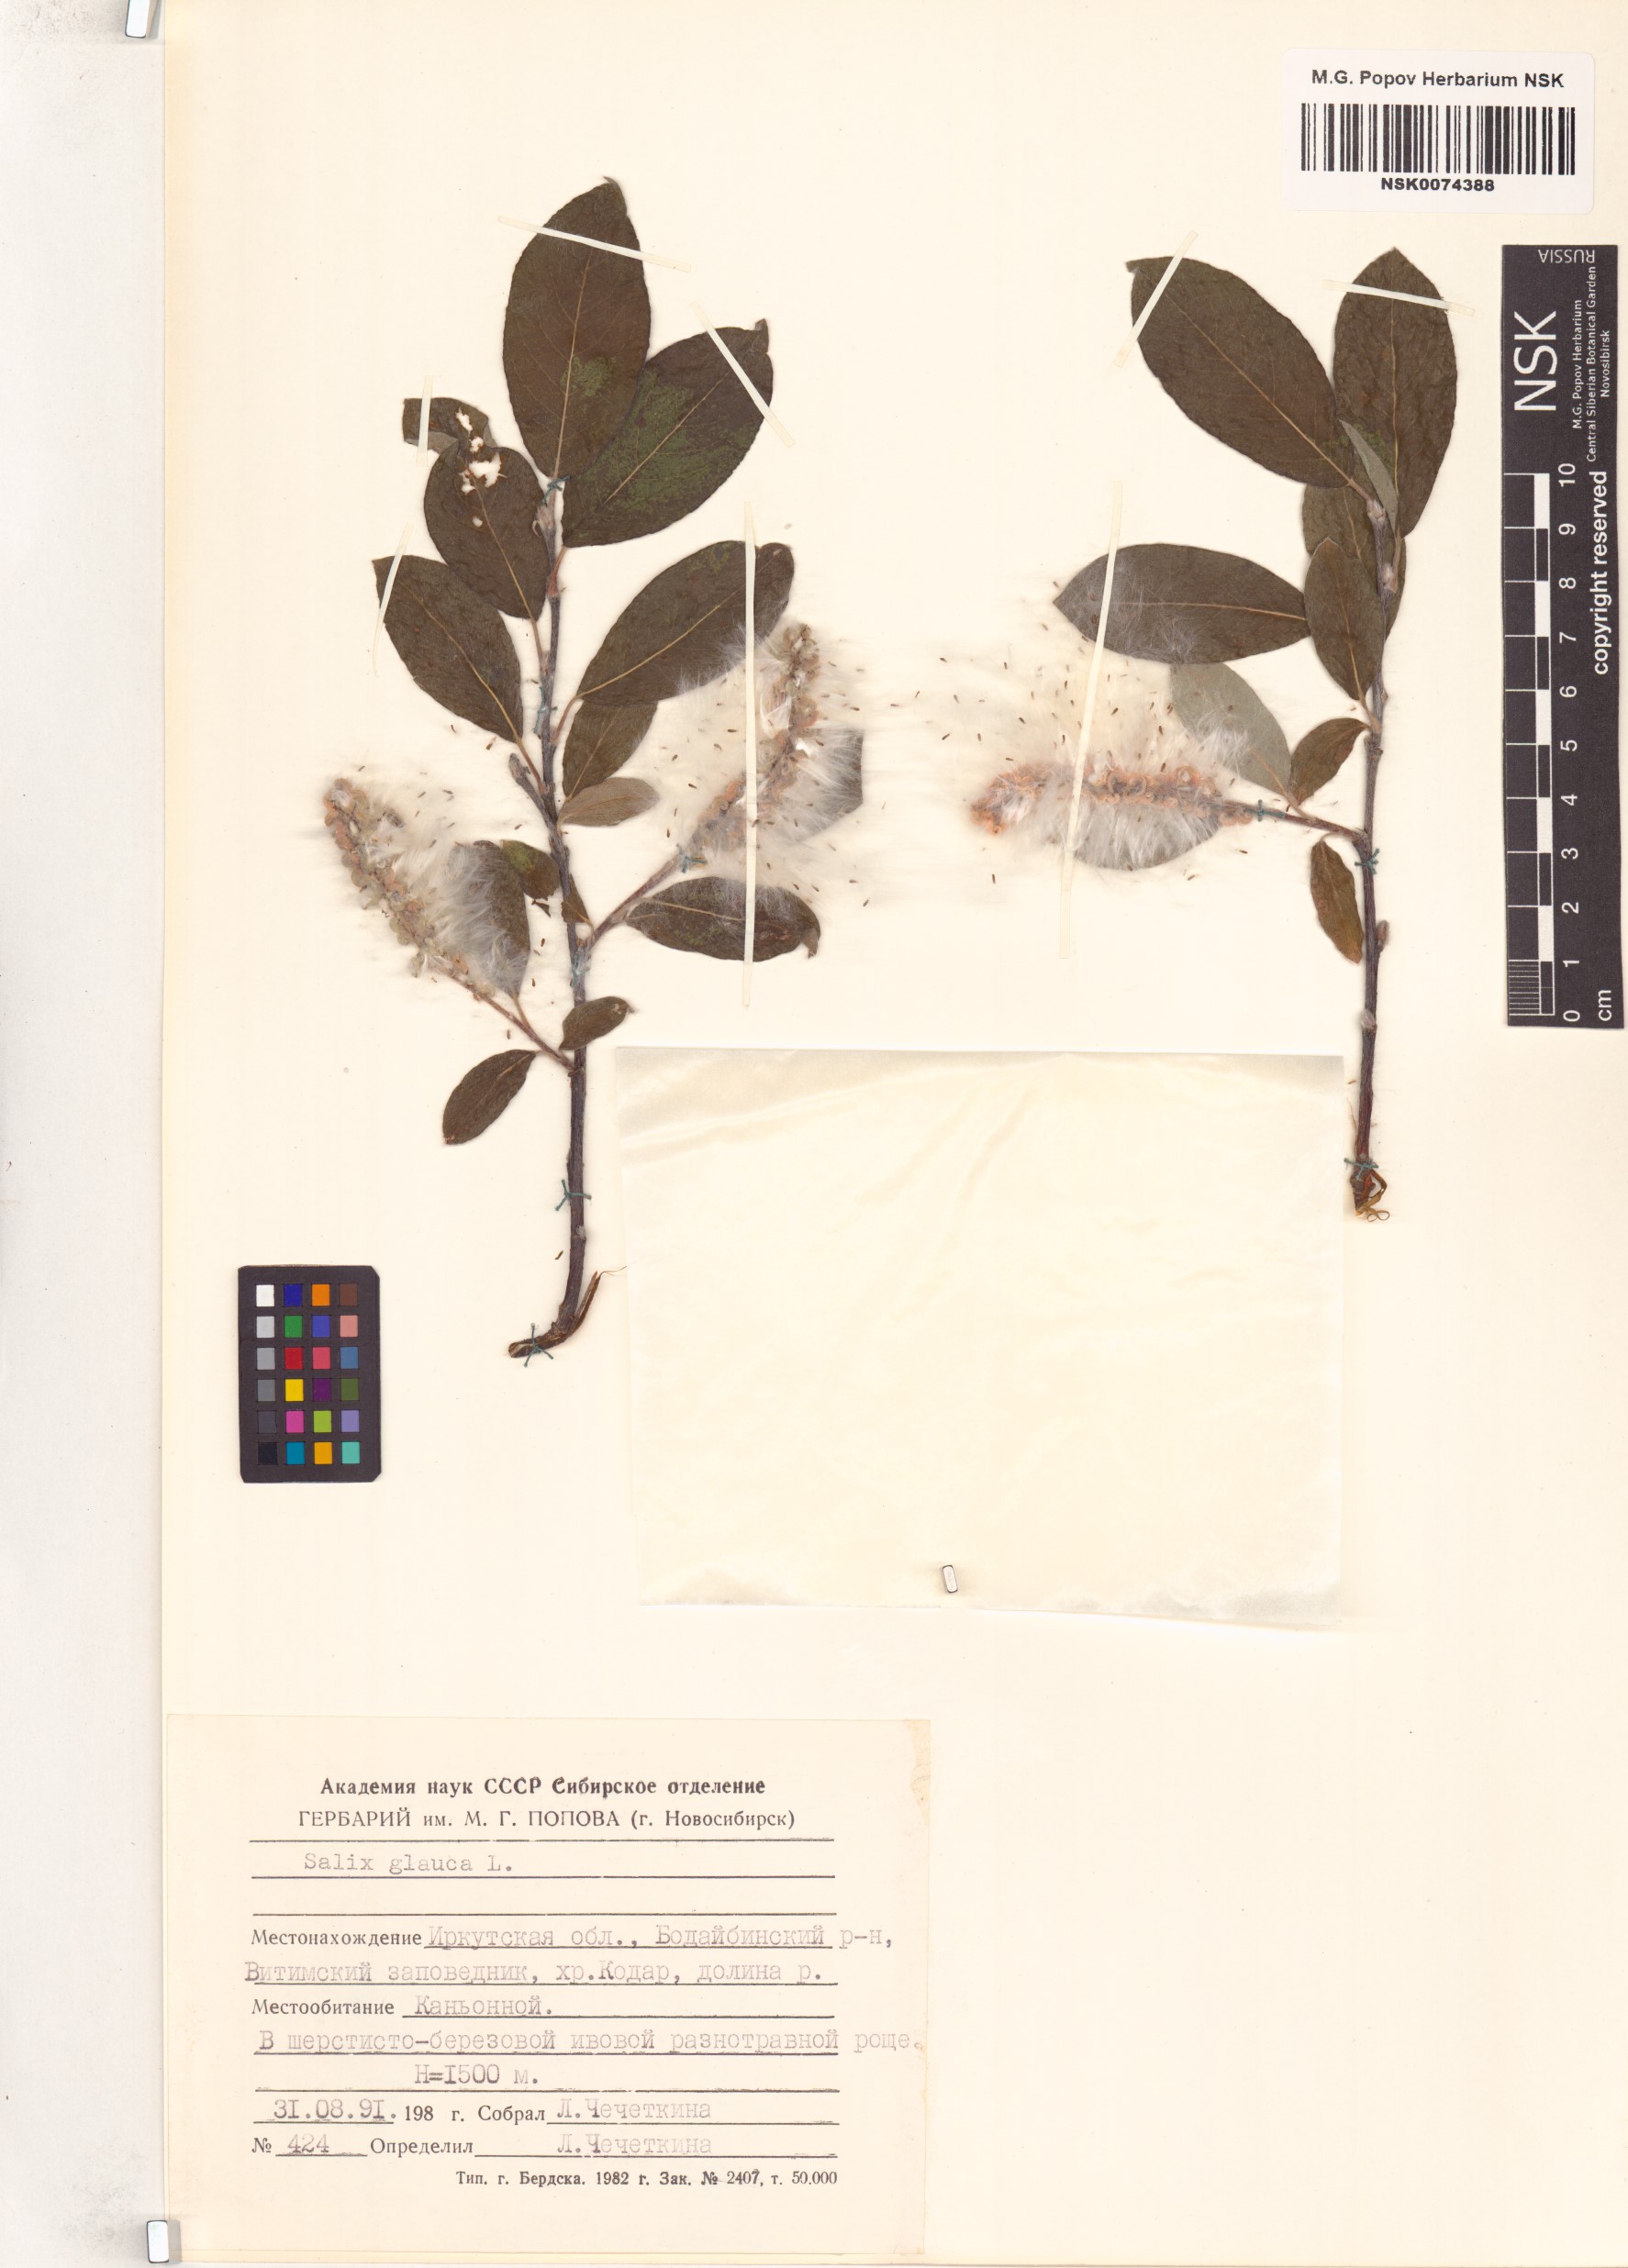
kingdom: Plantae
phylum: Tracheophyta
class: Magnoliopsida
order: Malpighiales
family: Salicaceae
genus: Salix
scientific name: Salix glauca
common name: Glaucous willow
